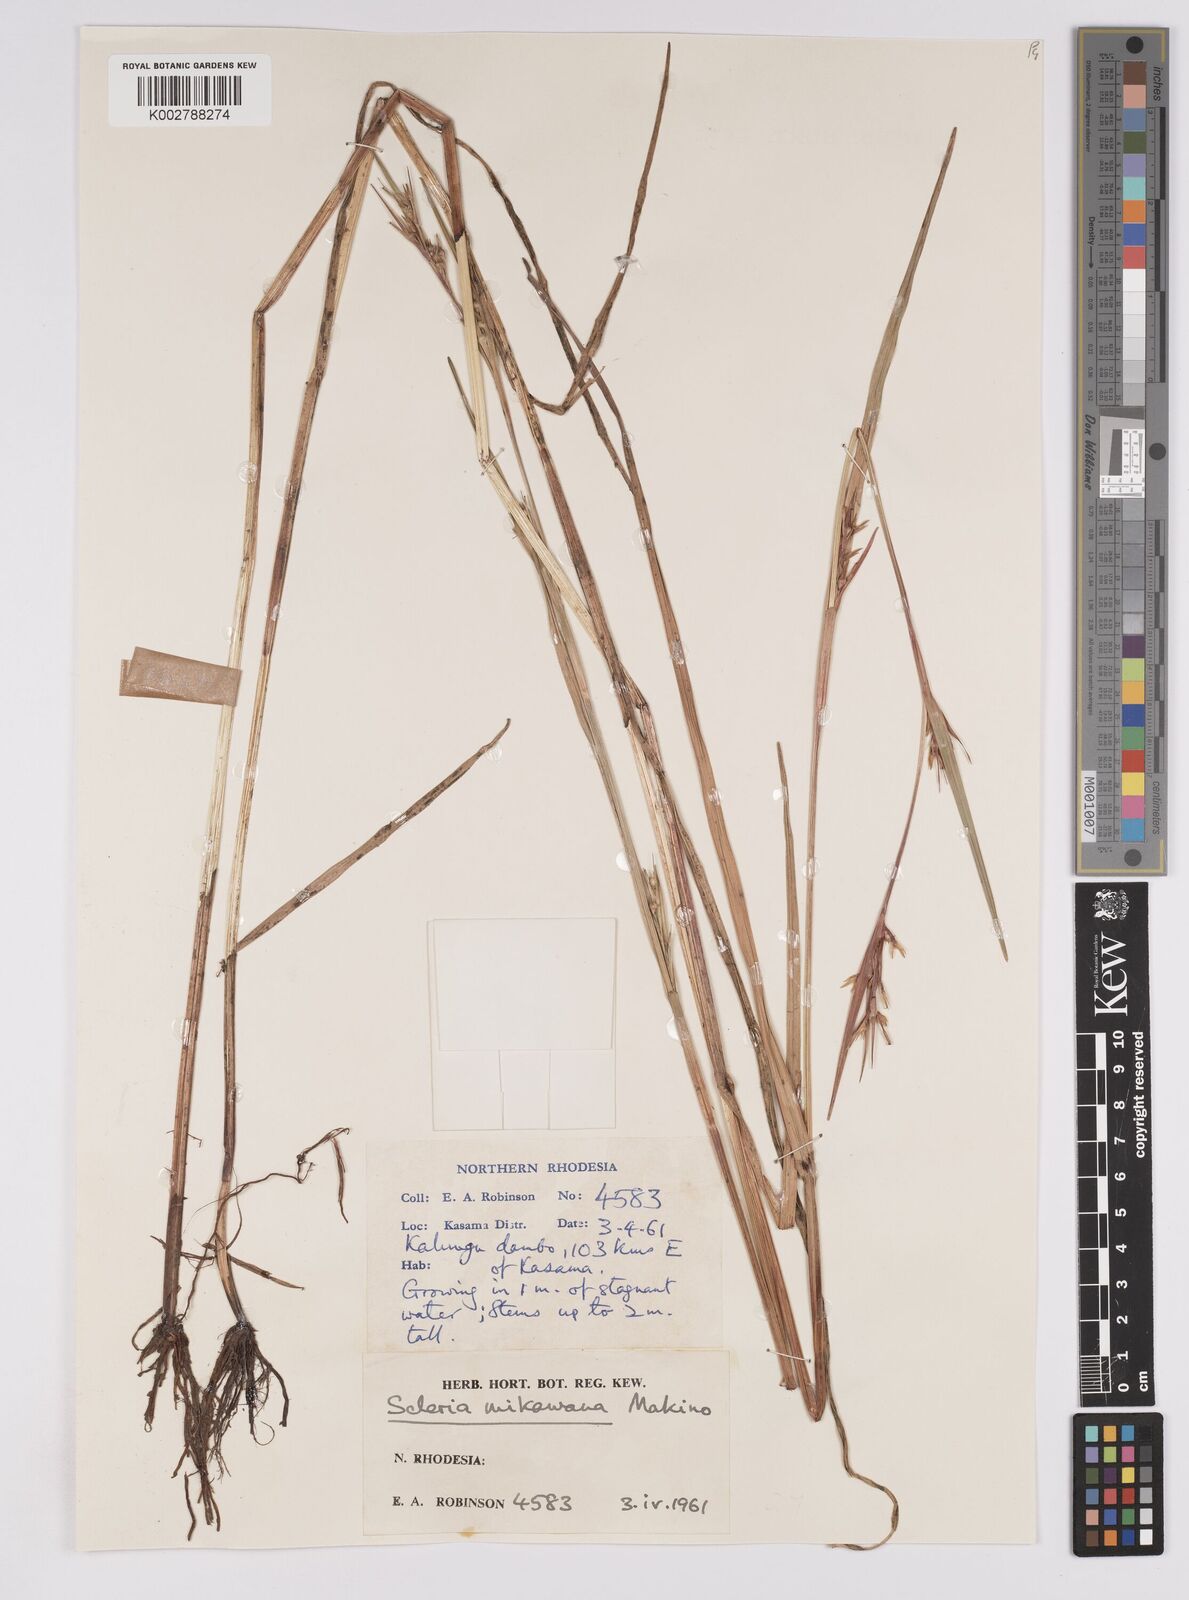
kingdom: Plantae
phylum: Tracheophyta
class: Liliopsida
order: Poales
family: Cyperaceae
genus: Scleria
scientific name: Scleria mikawana
